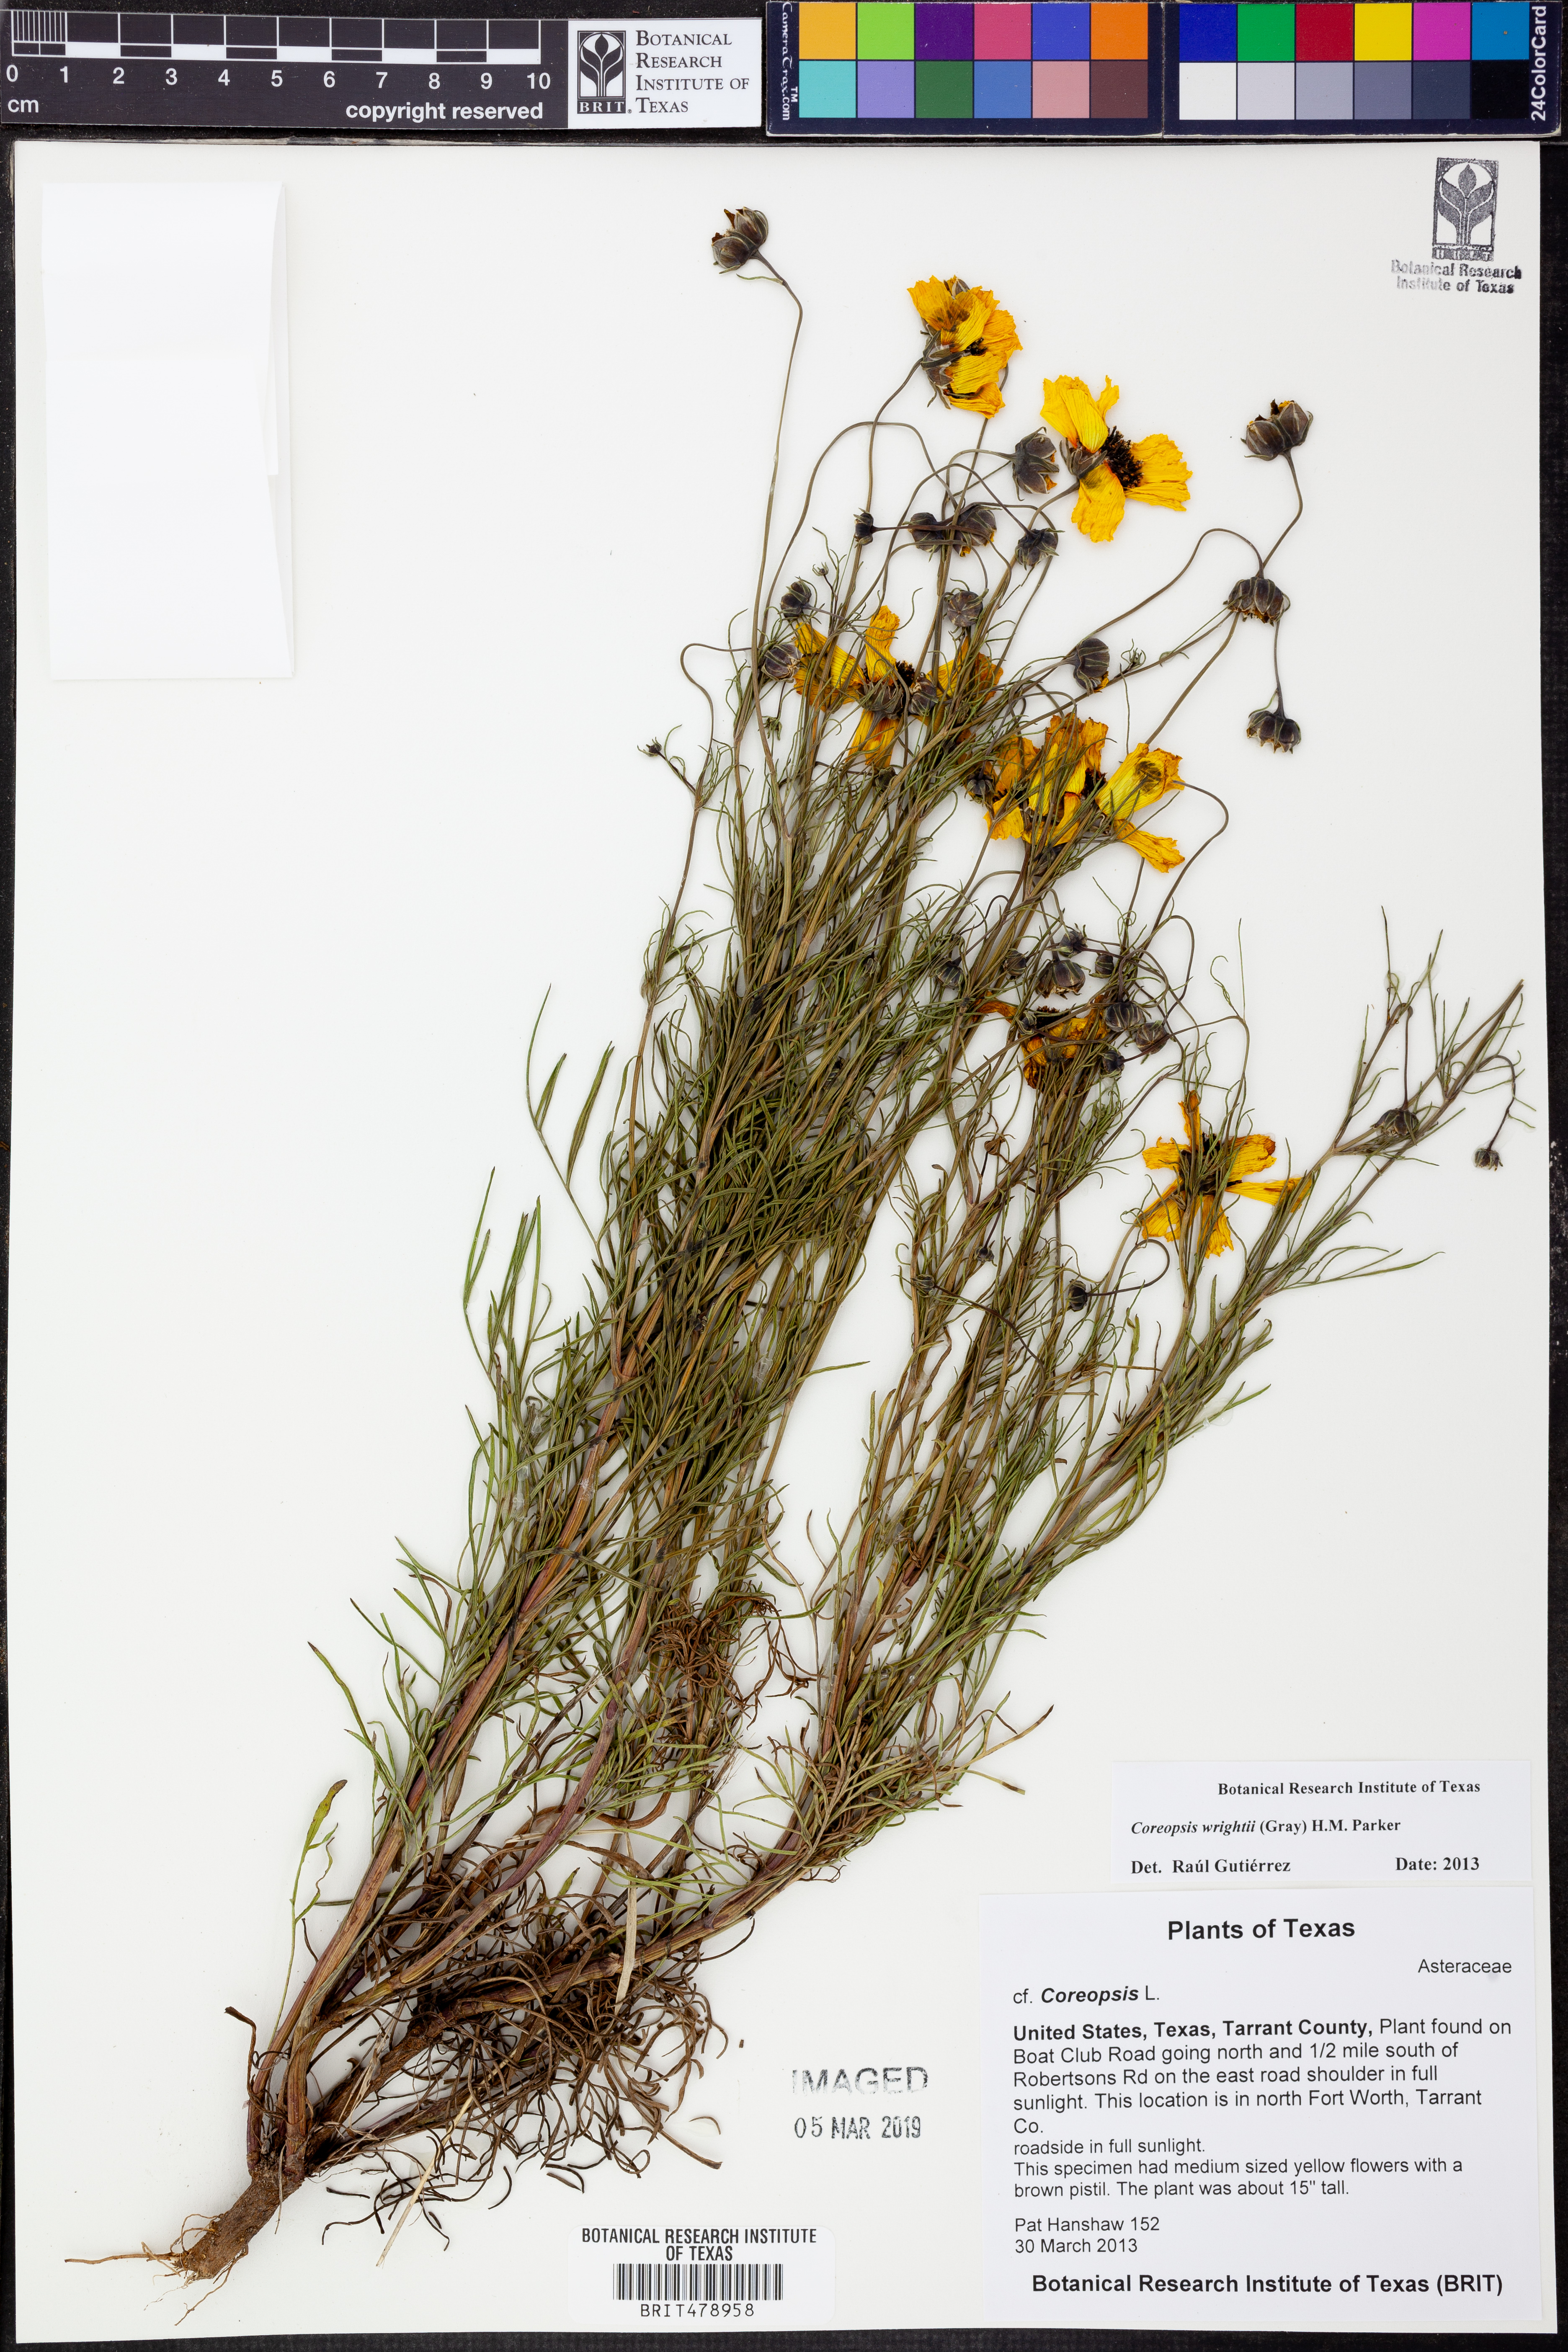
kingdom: Plantae
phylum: Tracheophyta
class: Magnoliopsida
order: Asterales
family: Asteraceae
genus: Coreopsis
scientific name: Coreopsis basalis
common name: Golden-mane coreopsis
